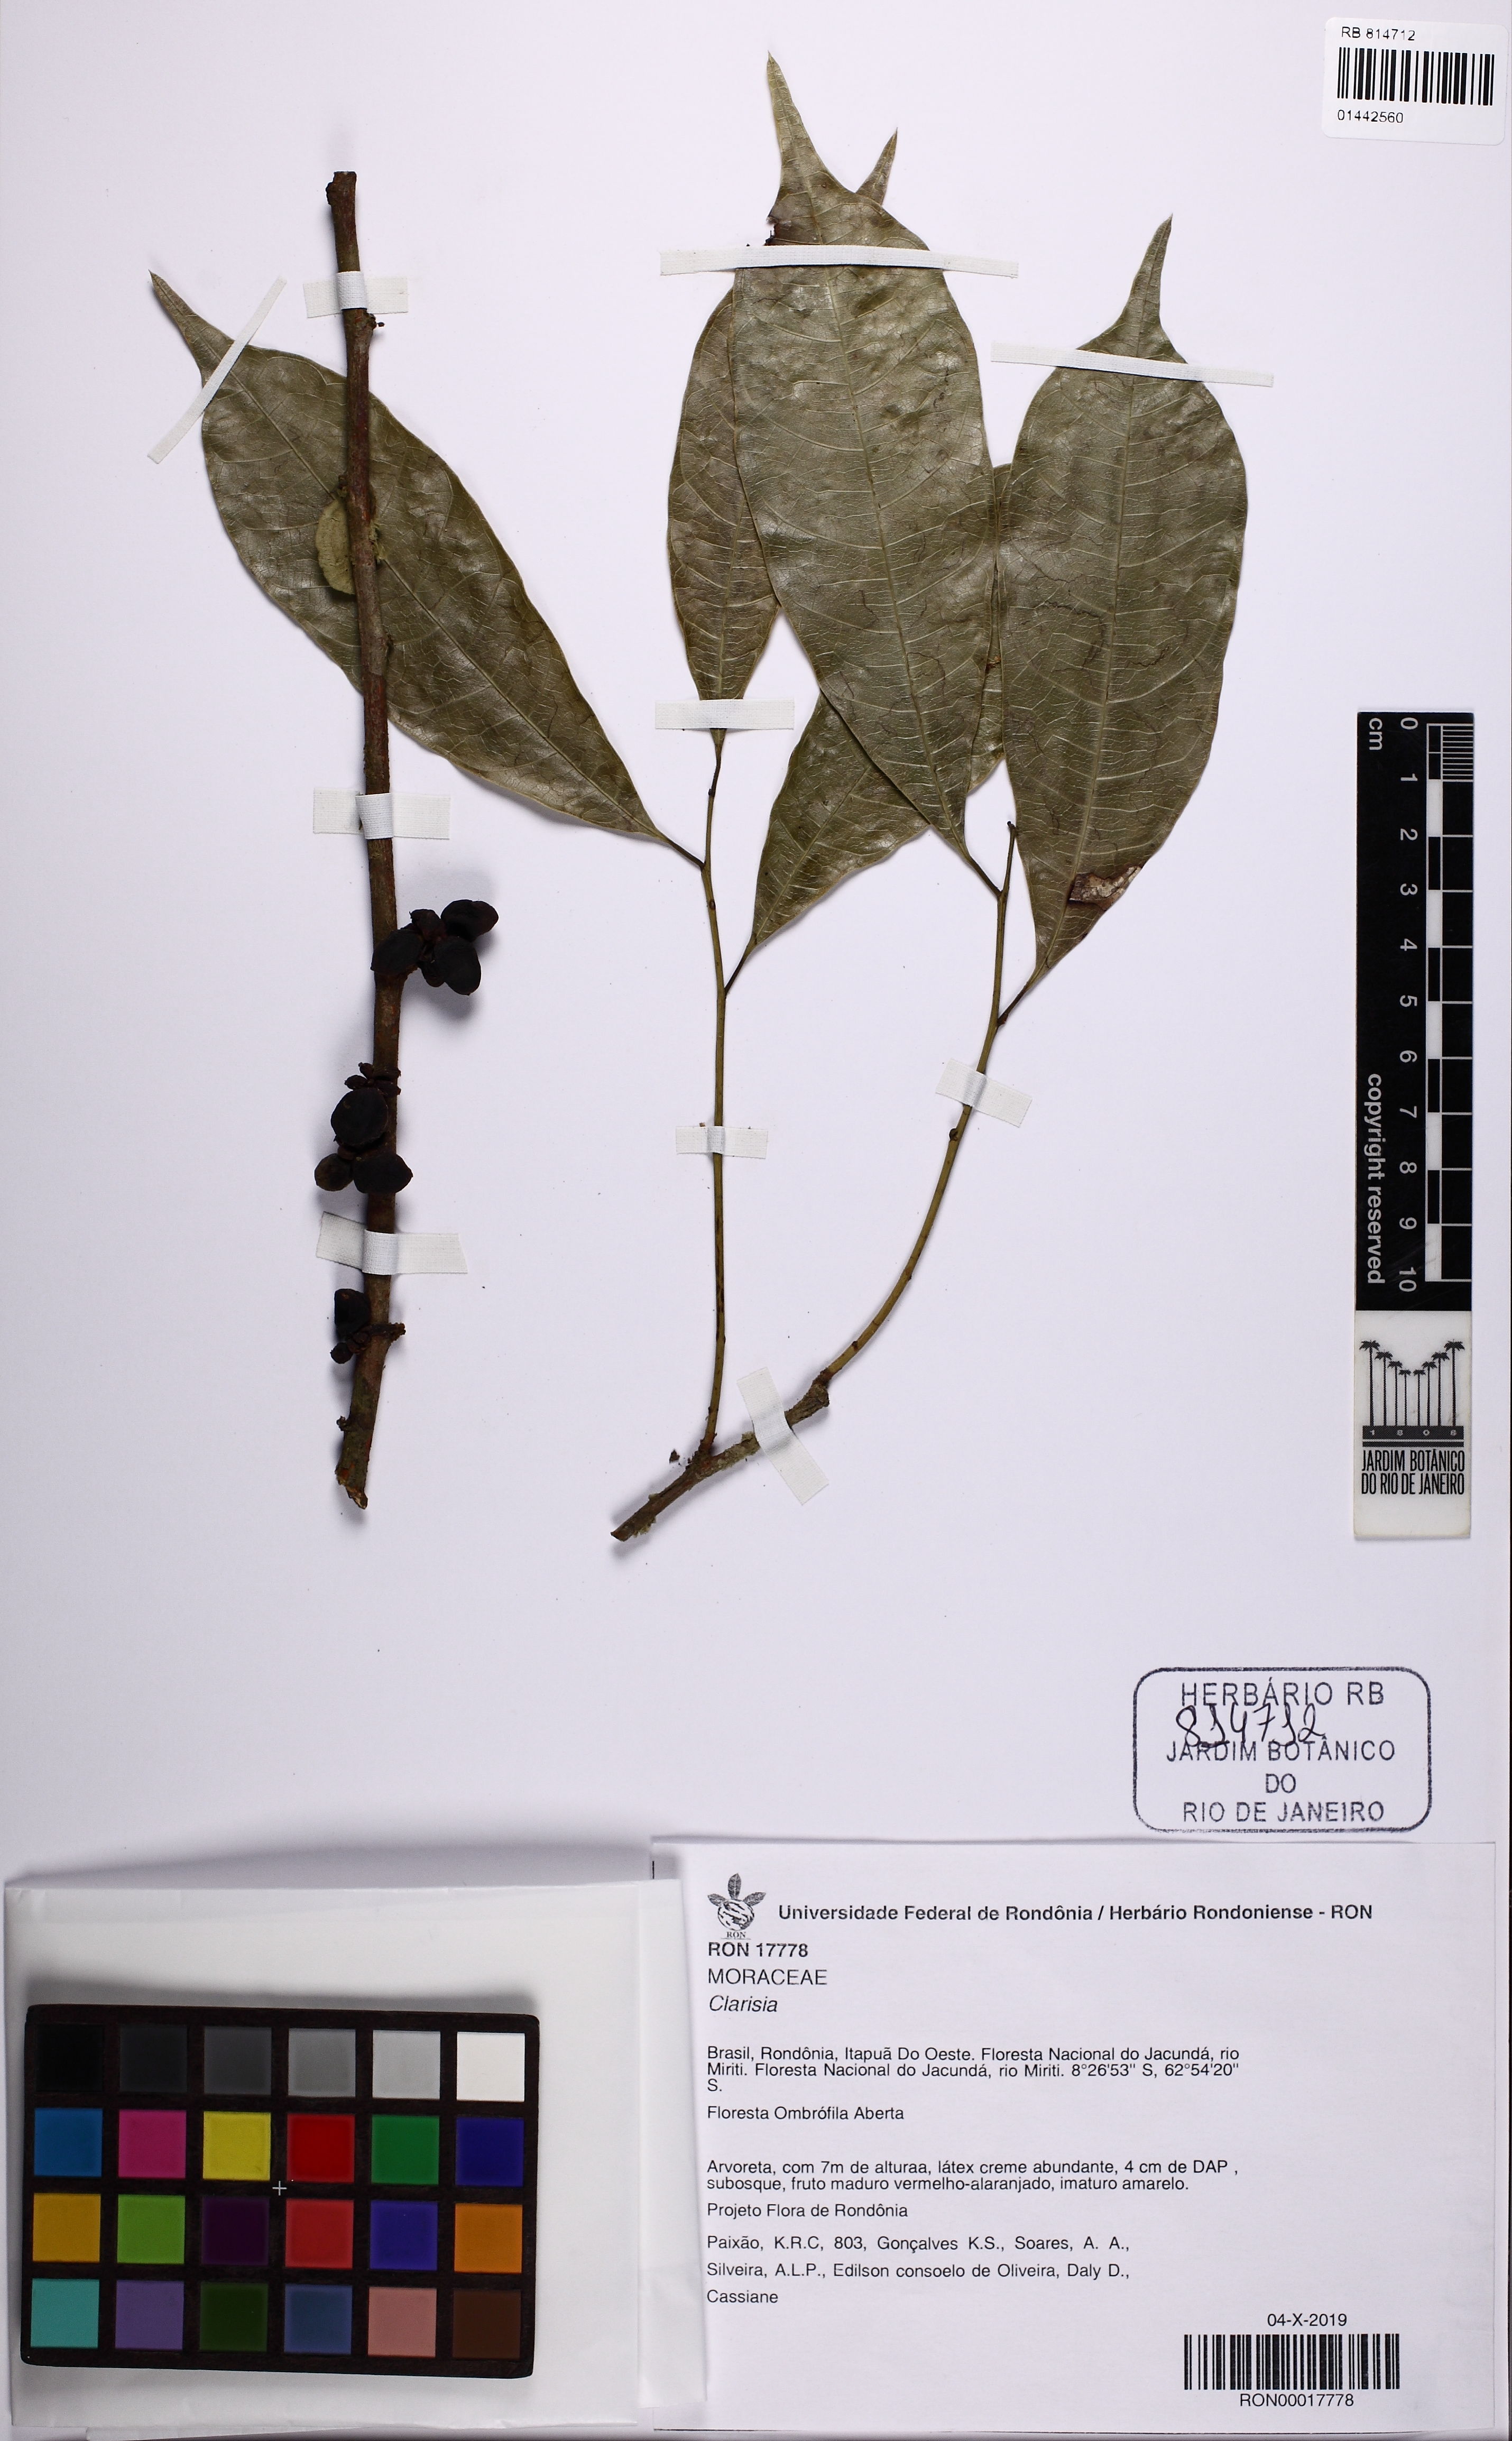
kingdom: Plantae
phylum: Tracheophyta
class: Magnoliopsida
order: Rosales
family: Moraceae
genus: Clarisia
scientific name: Clarisia
